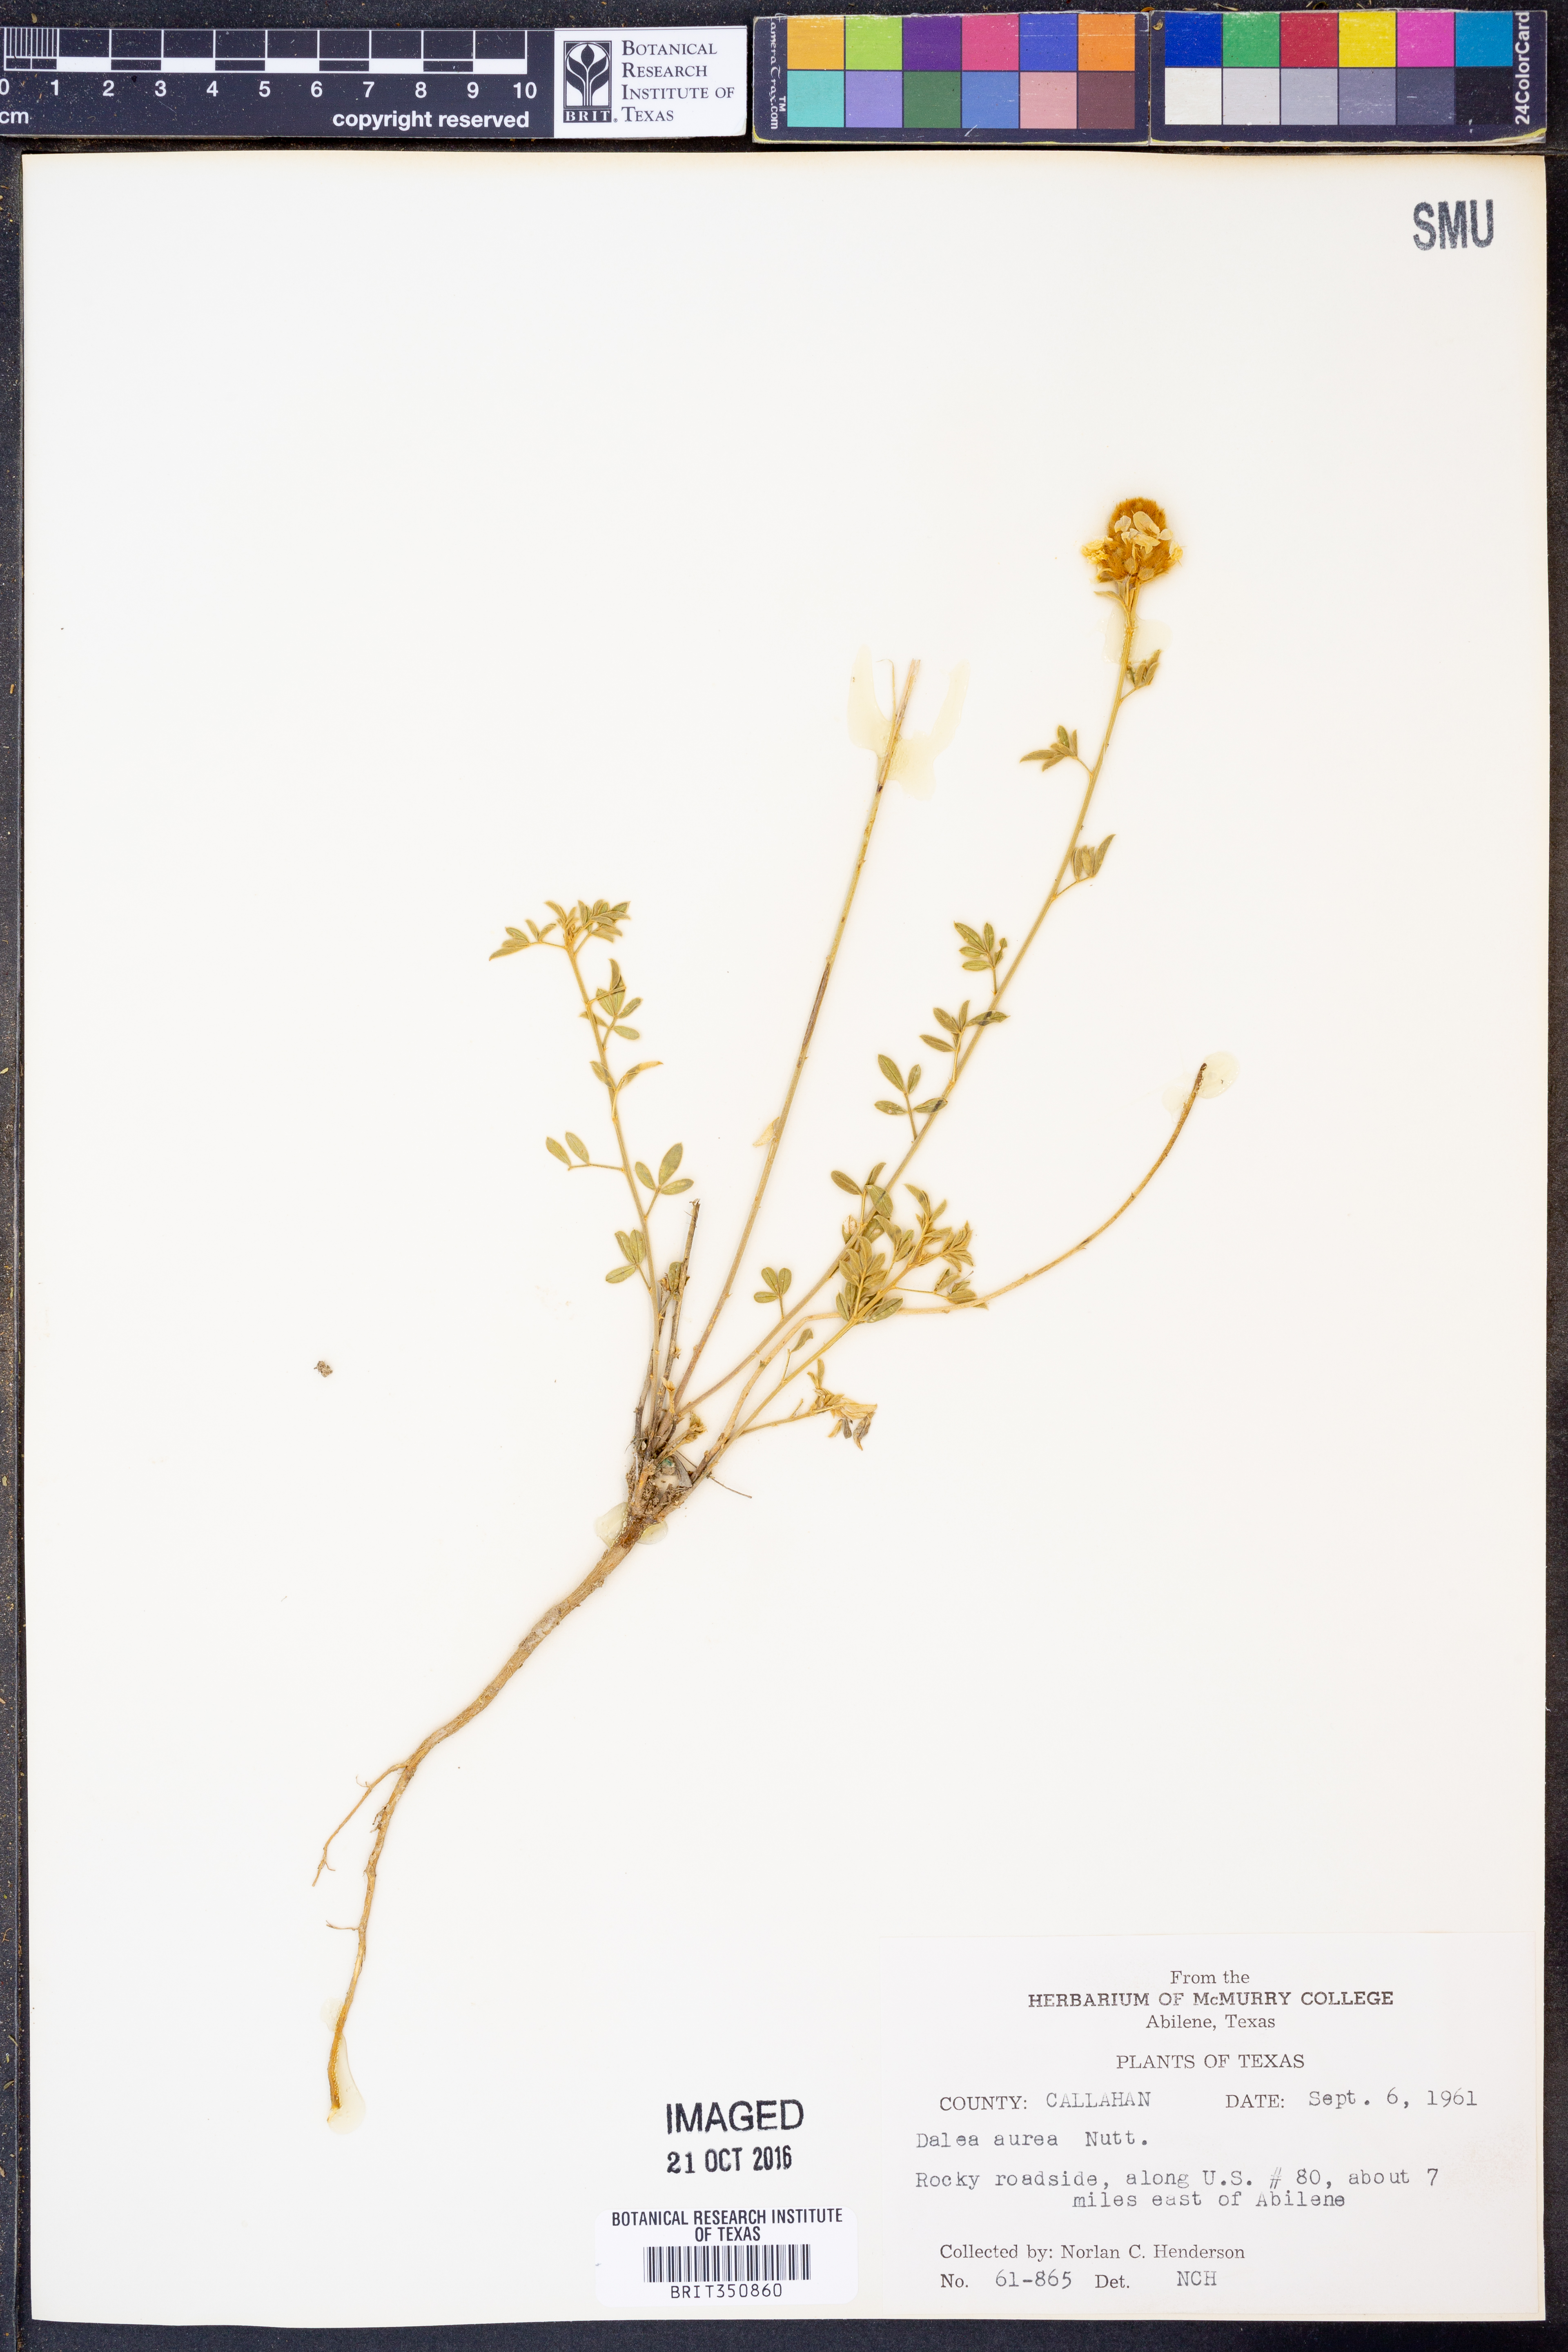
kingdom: Plantae
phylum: Tracheophyta
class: Magnoliopsida
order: Fabales
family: Fabaceae
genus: Dalea
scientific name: Dalea aurea
